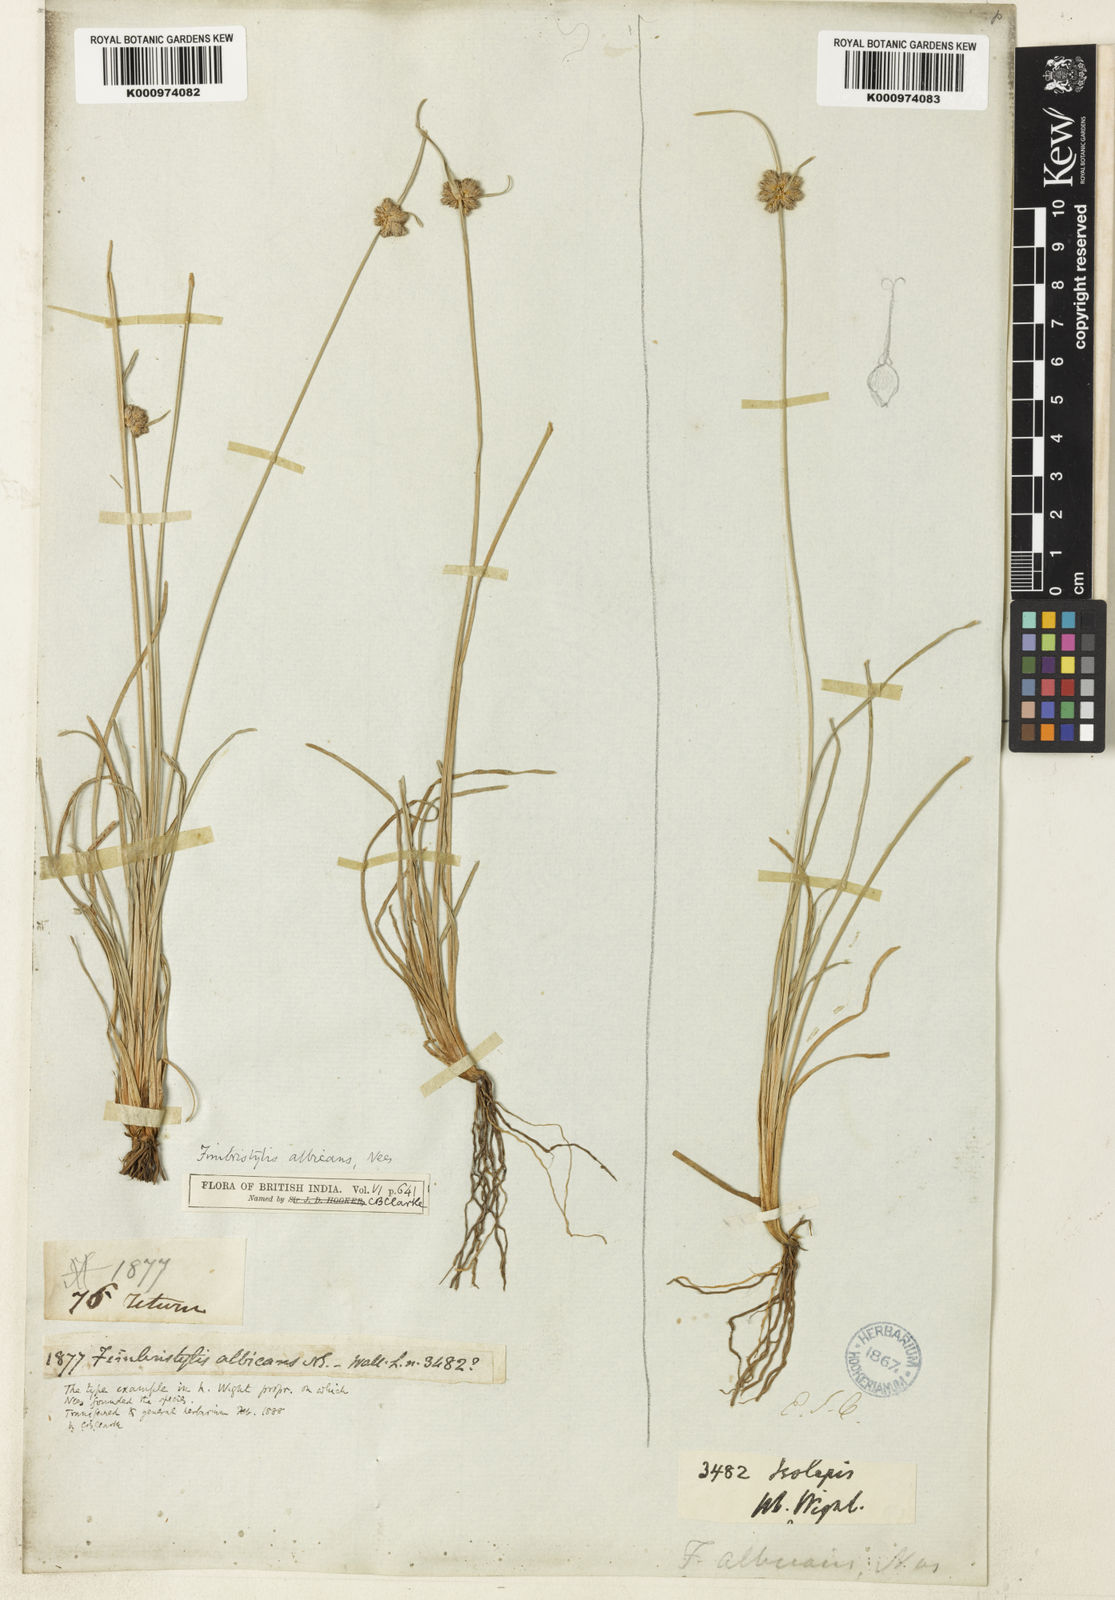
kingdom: Plantae
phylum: Tracheophyta
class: Liliopsida
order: Poales
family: Cyperaceae
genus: Fimbristylis
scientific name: Fimbristylis albicans
